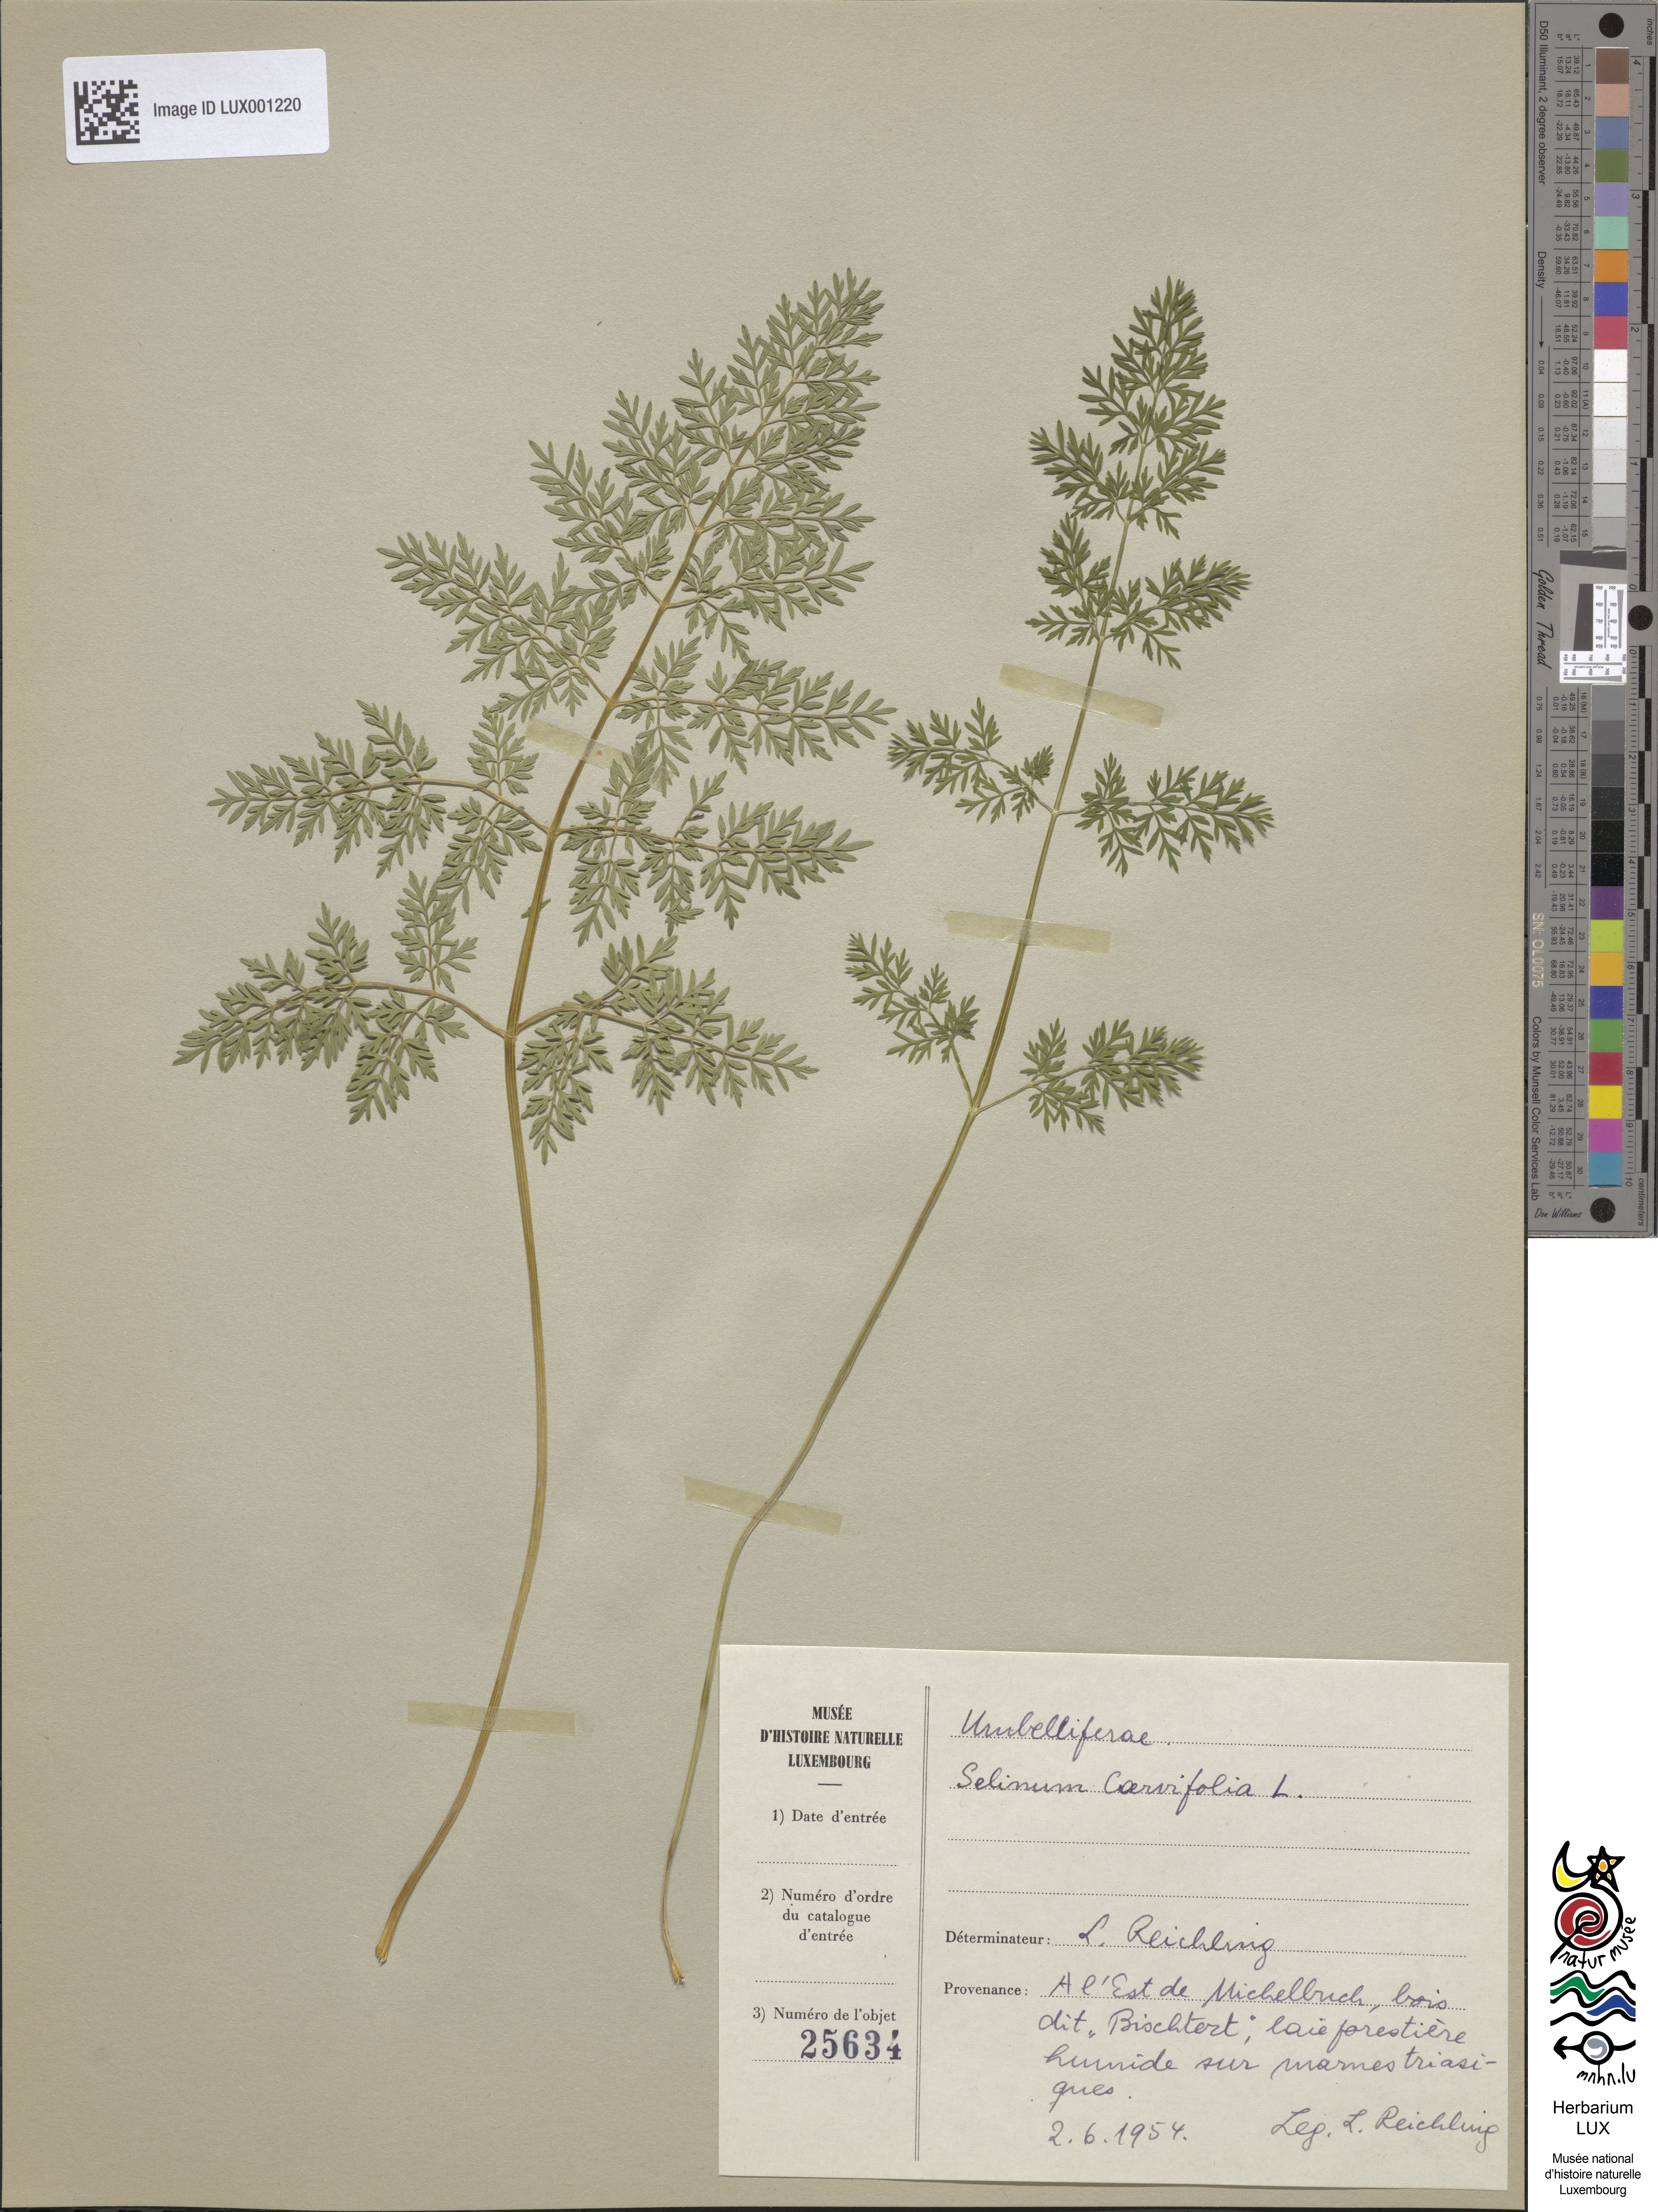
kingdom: Plantae
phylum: Tracheophyta
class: Magnoliopsida
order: Apiales
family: Apiaceae
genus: Selinum
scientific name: Selinum carvifolia
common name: Cambridge milk-parsley
